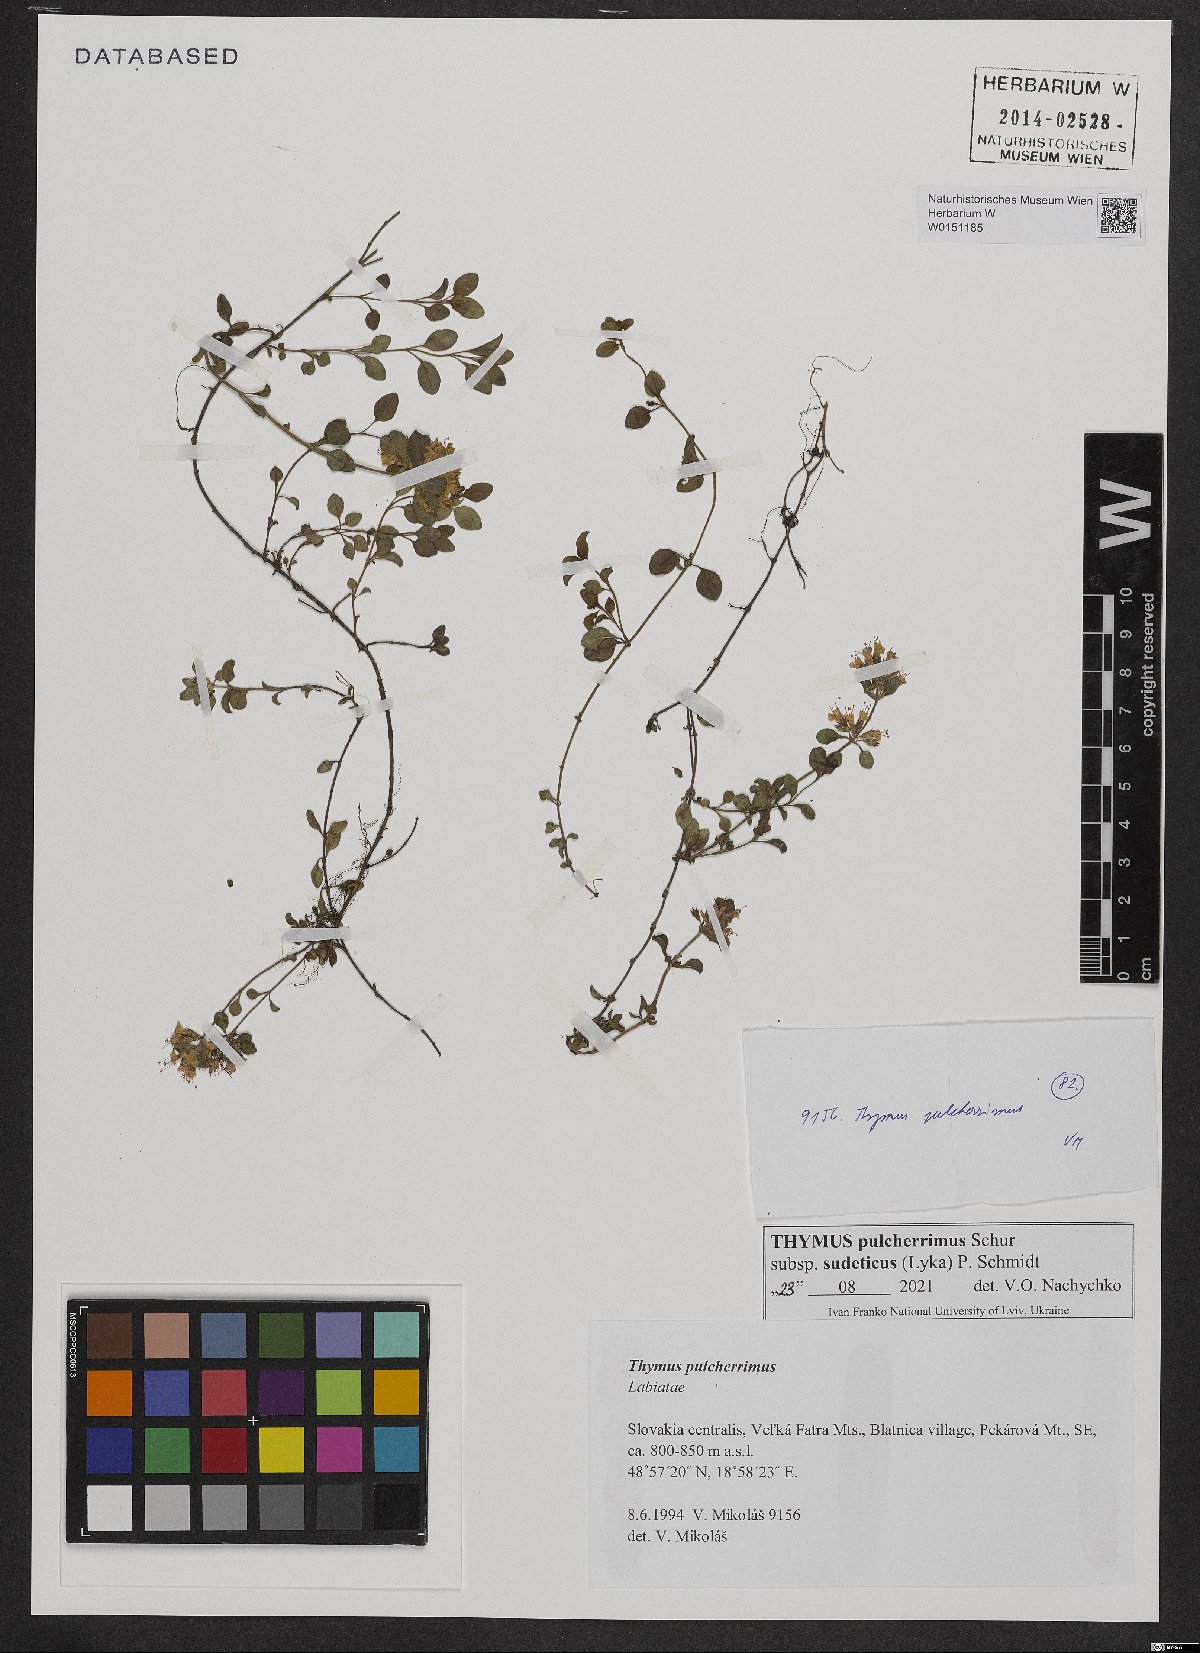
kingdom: Plantae
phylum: Tracheophyta
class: Magnoliopsida
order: Lamiales
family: Lamiaceae
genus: Thymus
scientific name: Thymus pulcherrimus
